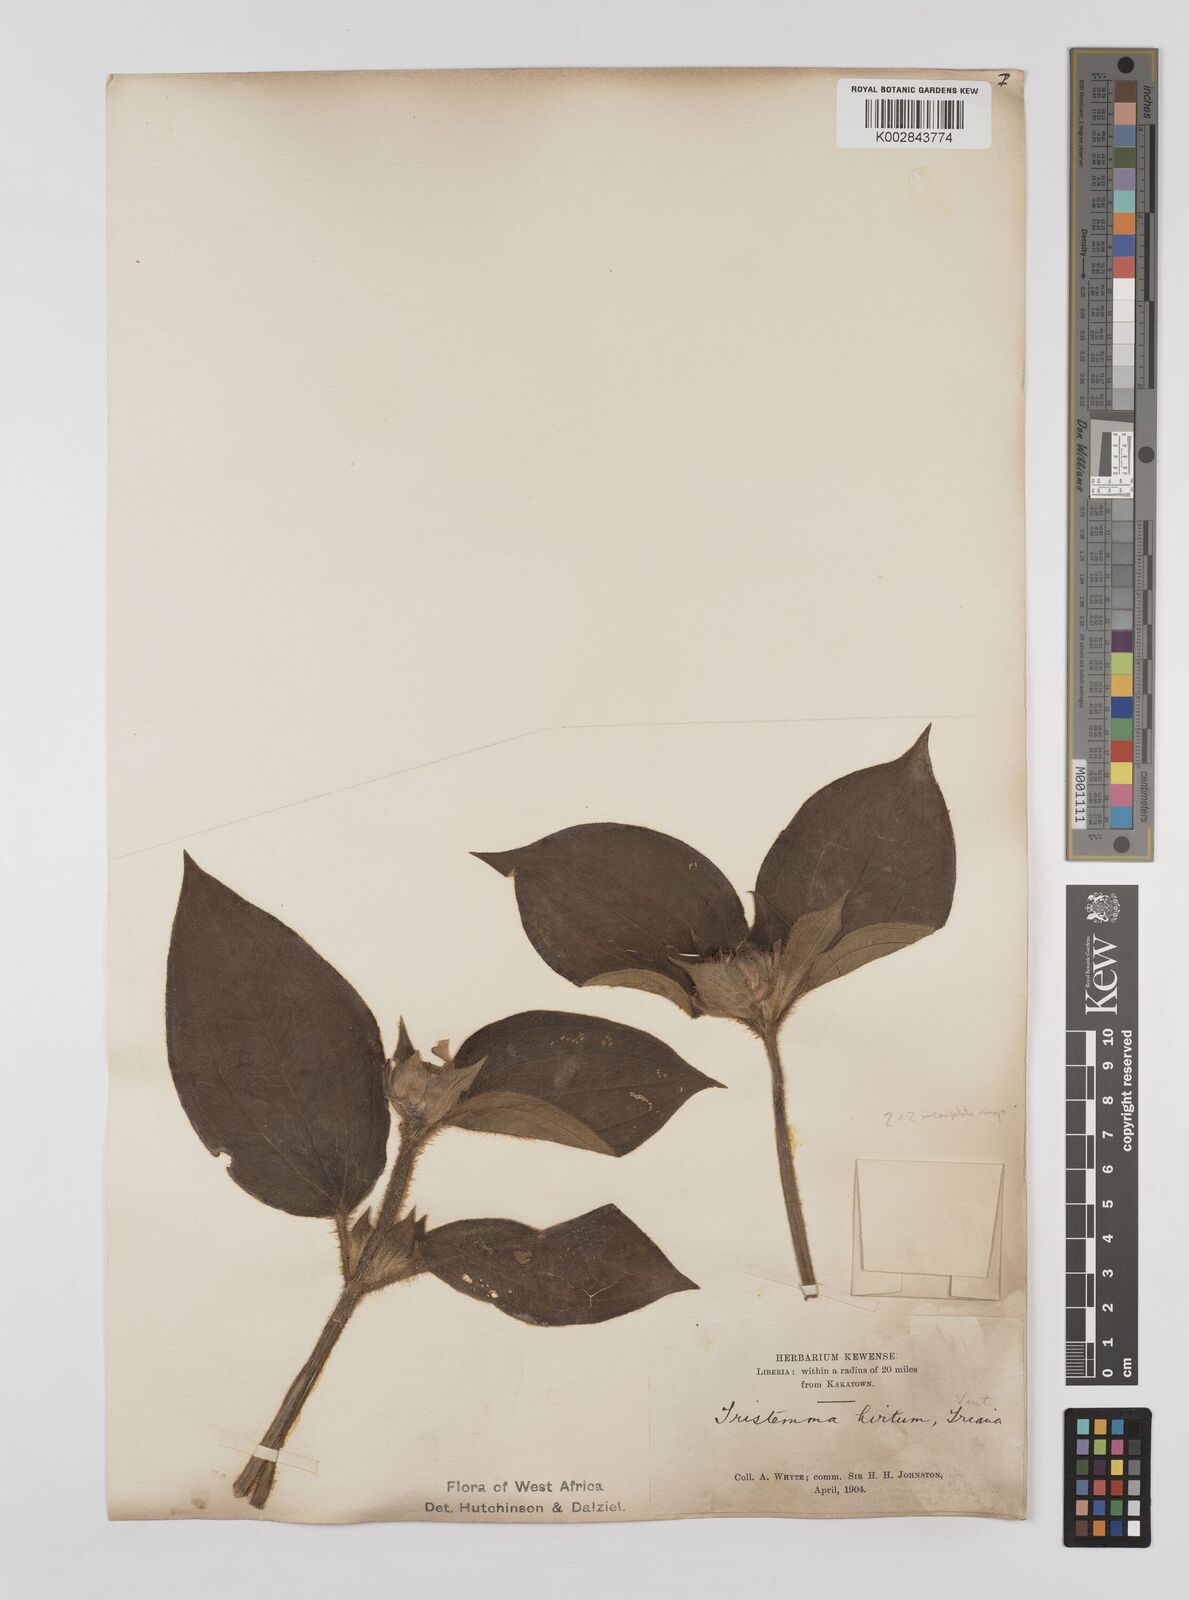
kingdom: Plantae
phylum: Tracheophyta
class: Magnoliopsida
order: Myrtales
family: Melastomataceae
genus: Tristemma
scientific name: Tristemma hirtum
